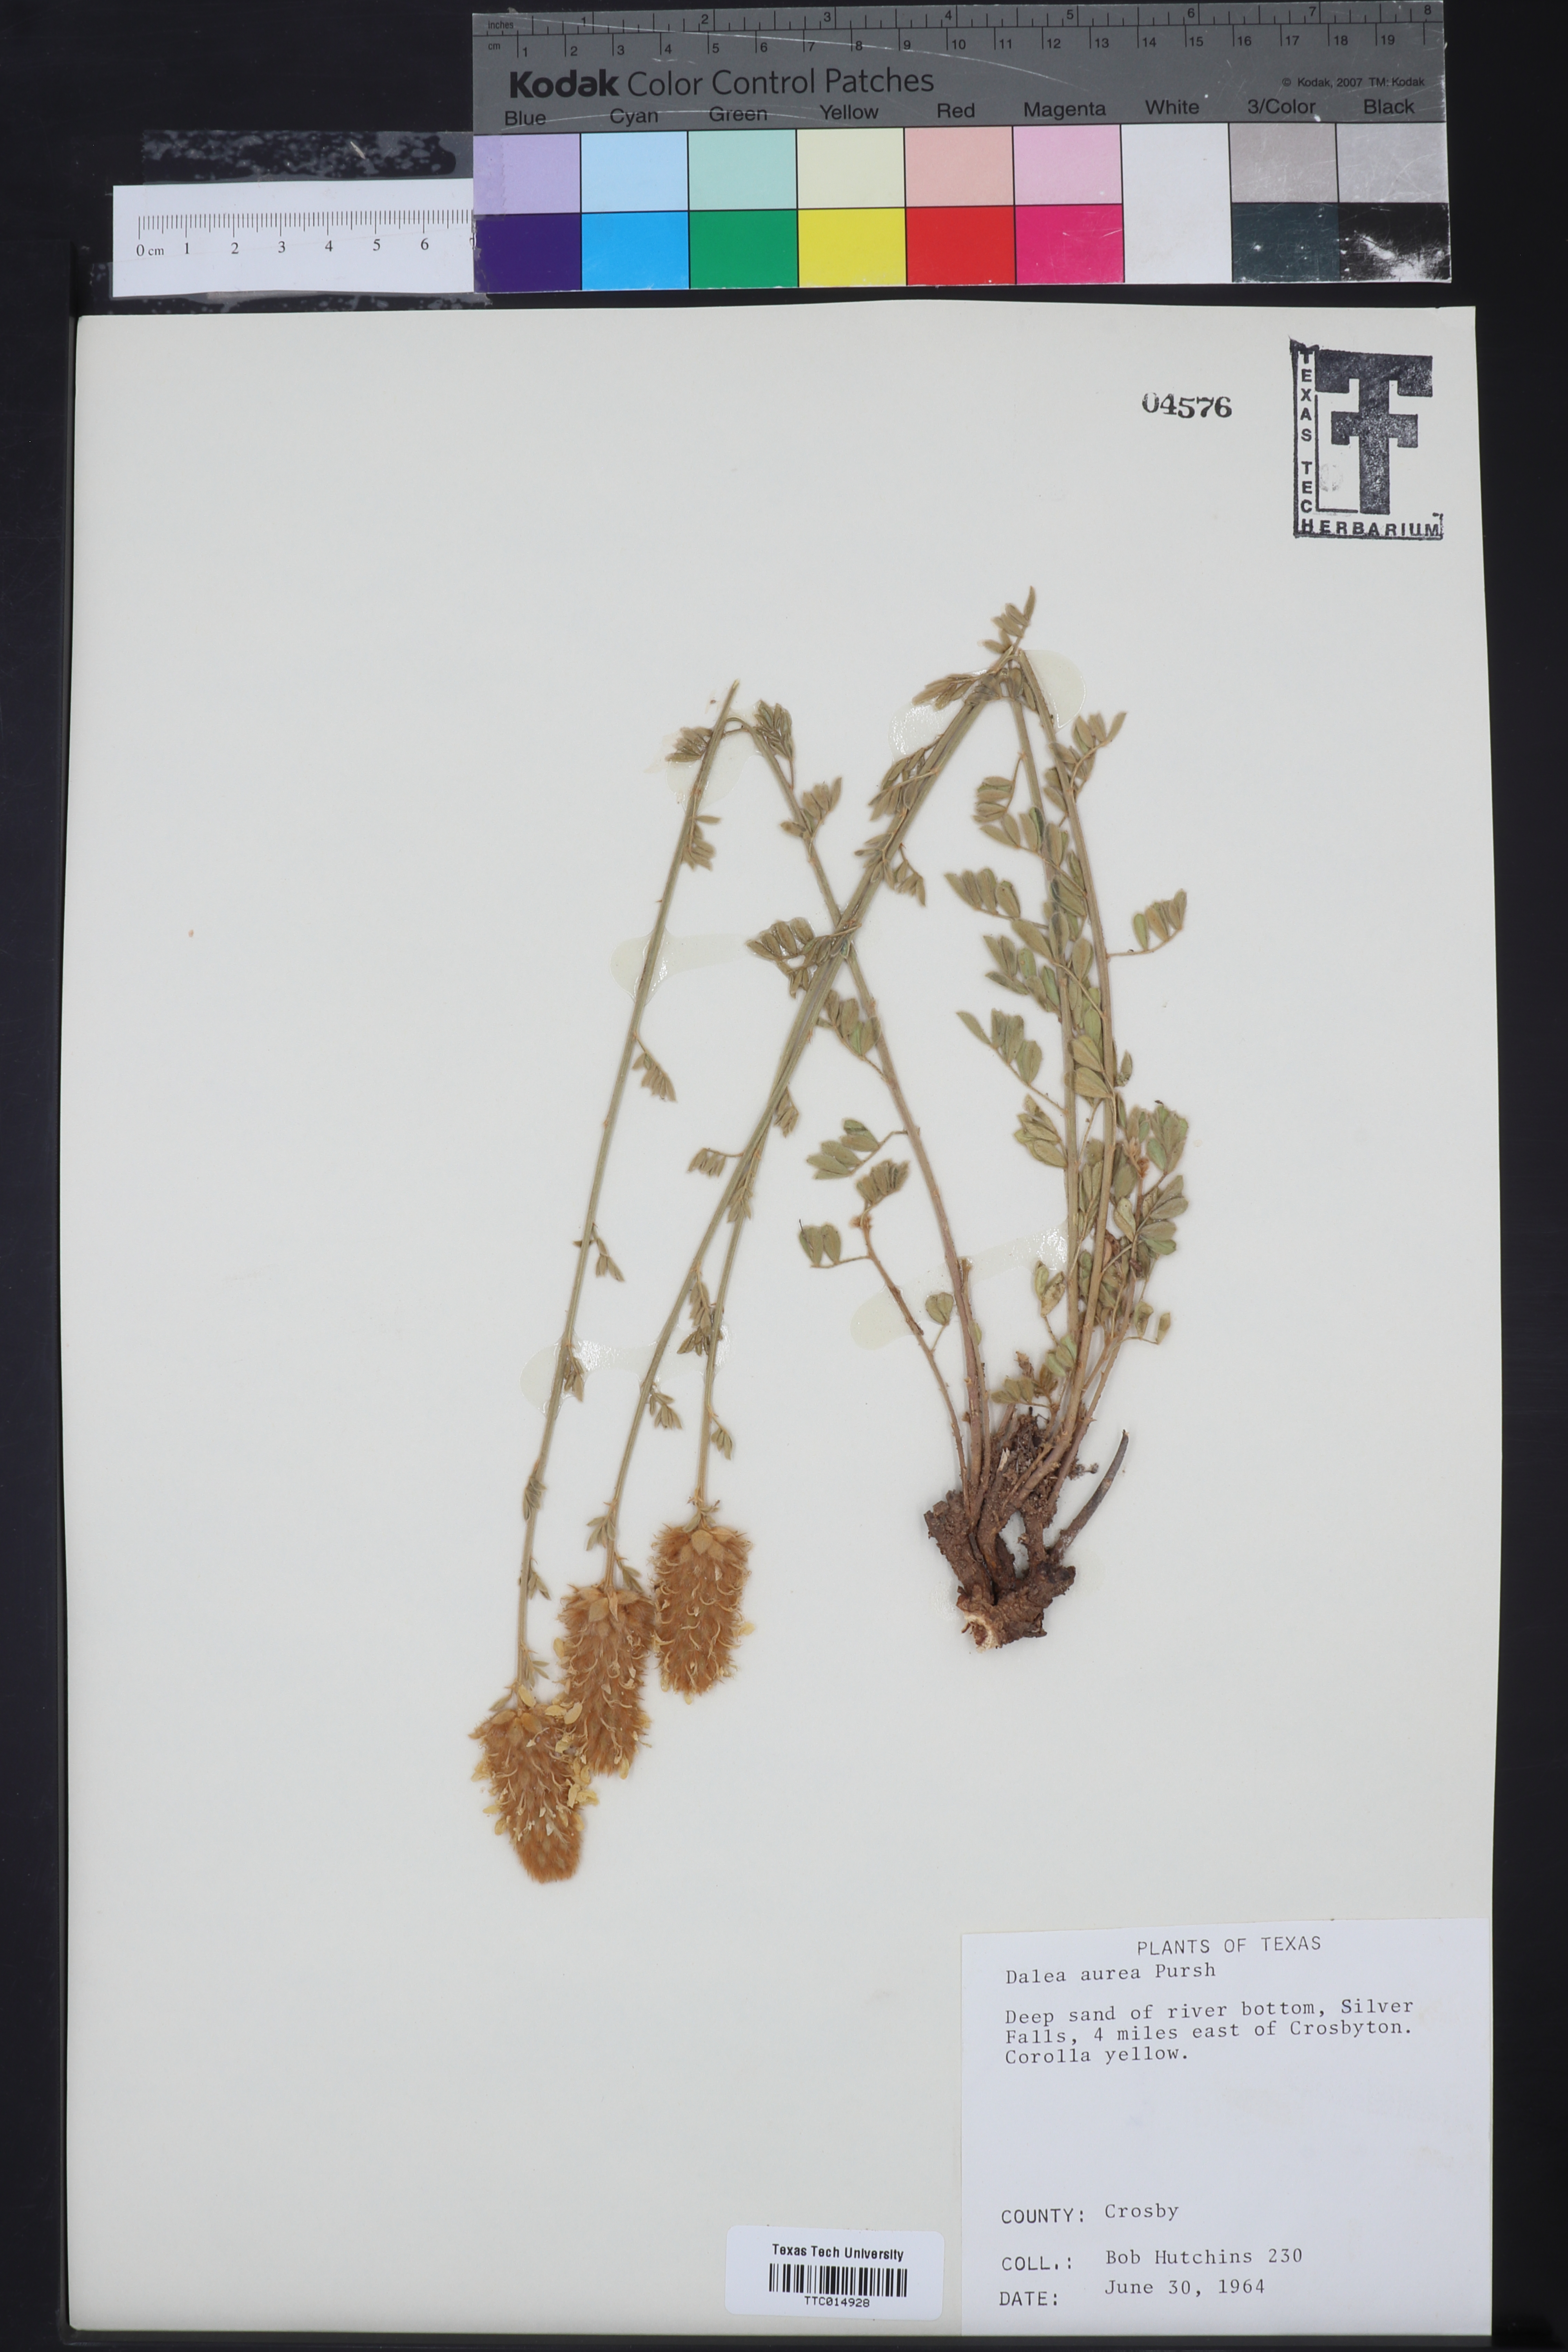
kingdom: Plantae
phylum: Tracheophyta
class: Magnoliopsida
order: Fabales
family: Fabaceae
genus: Dalea
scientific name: Dalea aurea
